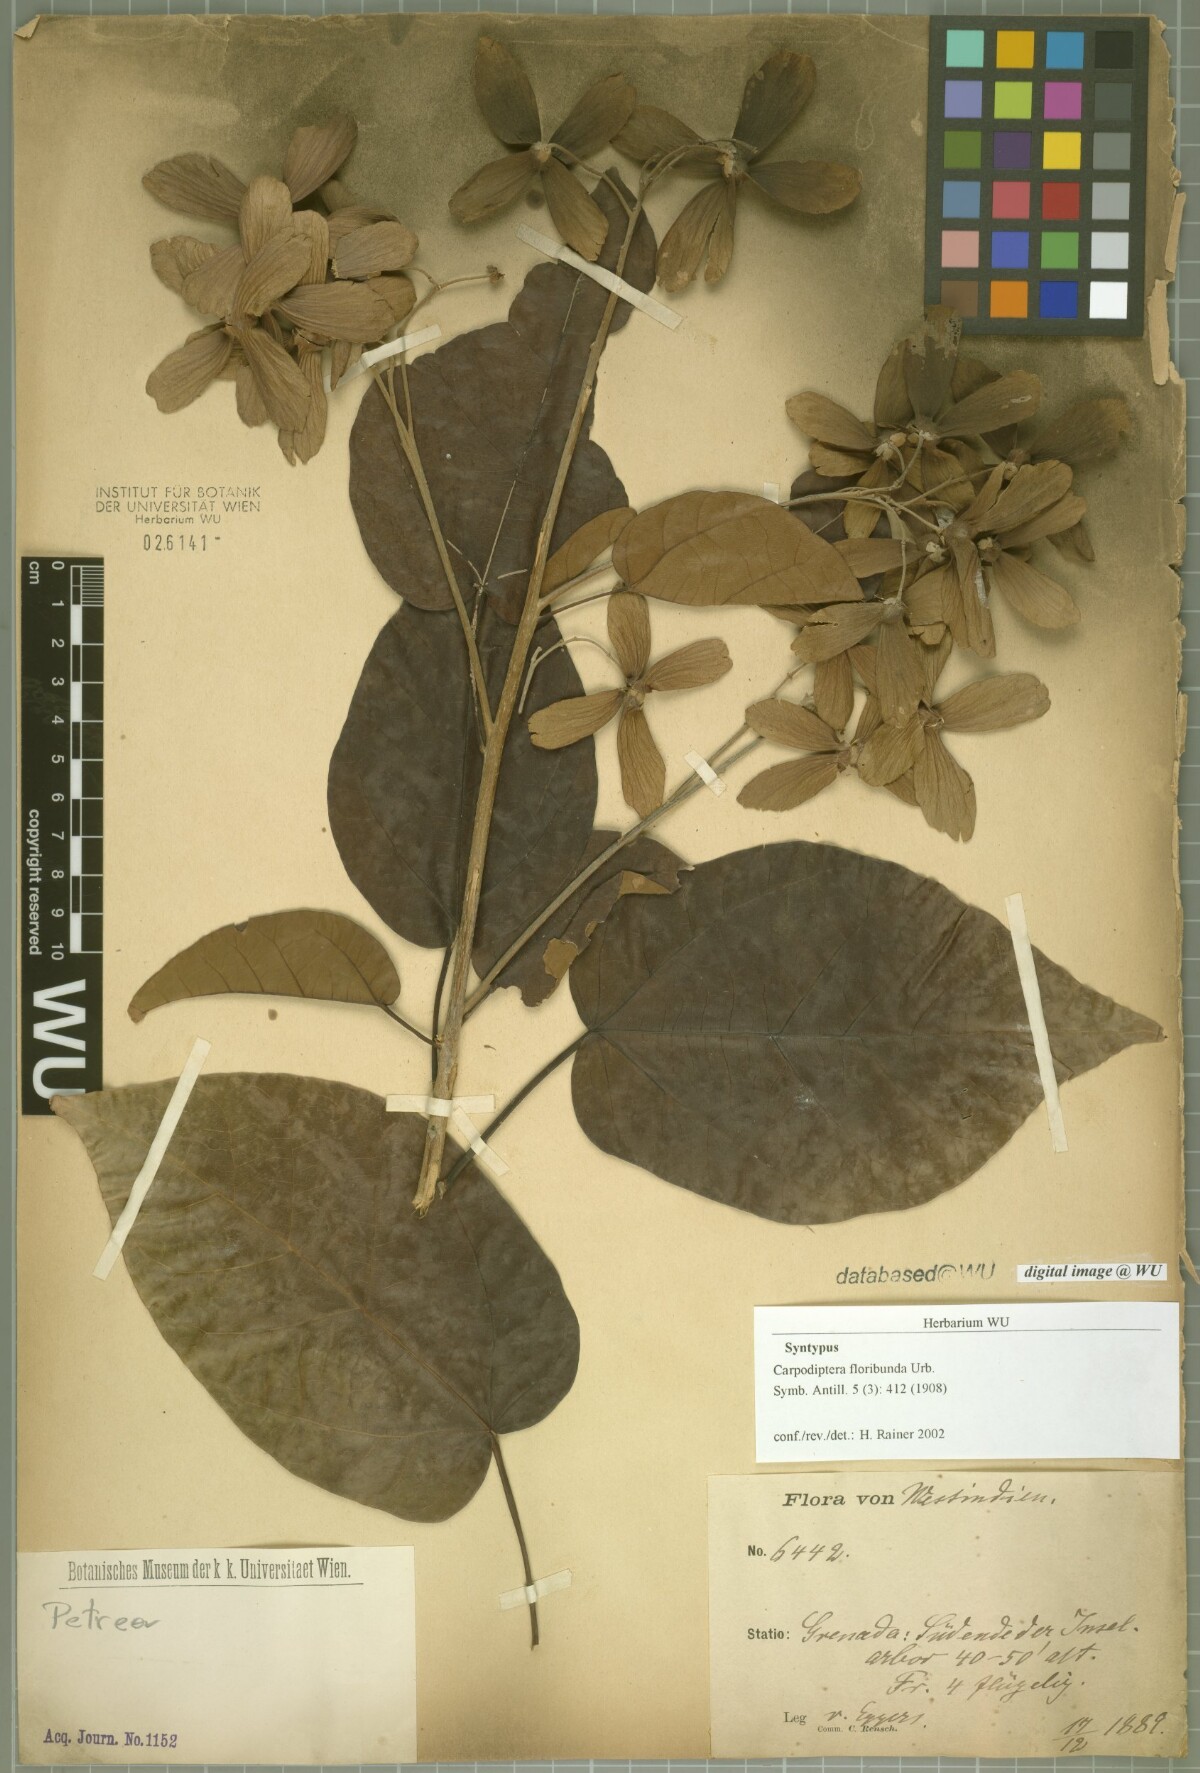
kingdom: Plantae
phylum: Tracheophyta
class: Magnoliopsida
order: Malvales
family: Malvaceae
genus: Berrya
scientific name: Berrya cubensis
